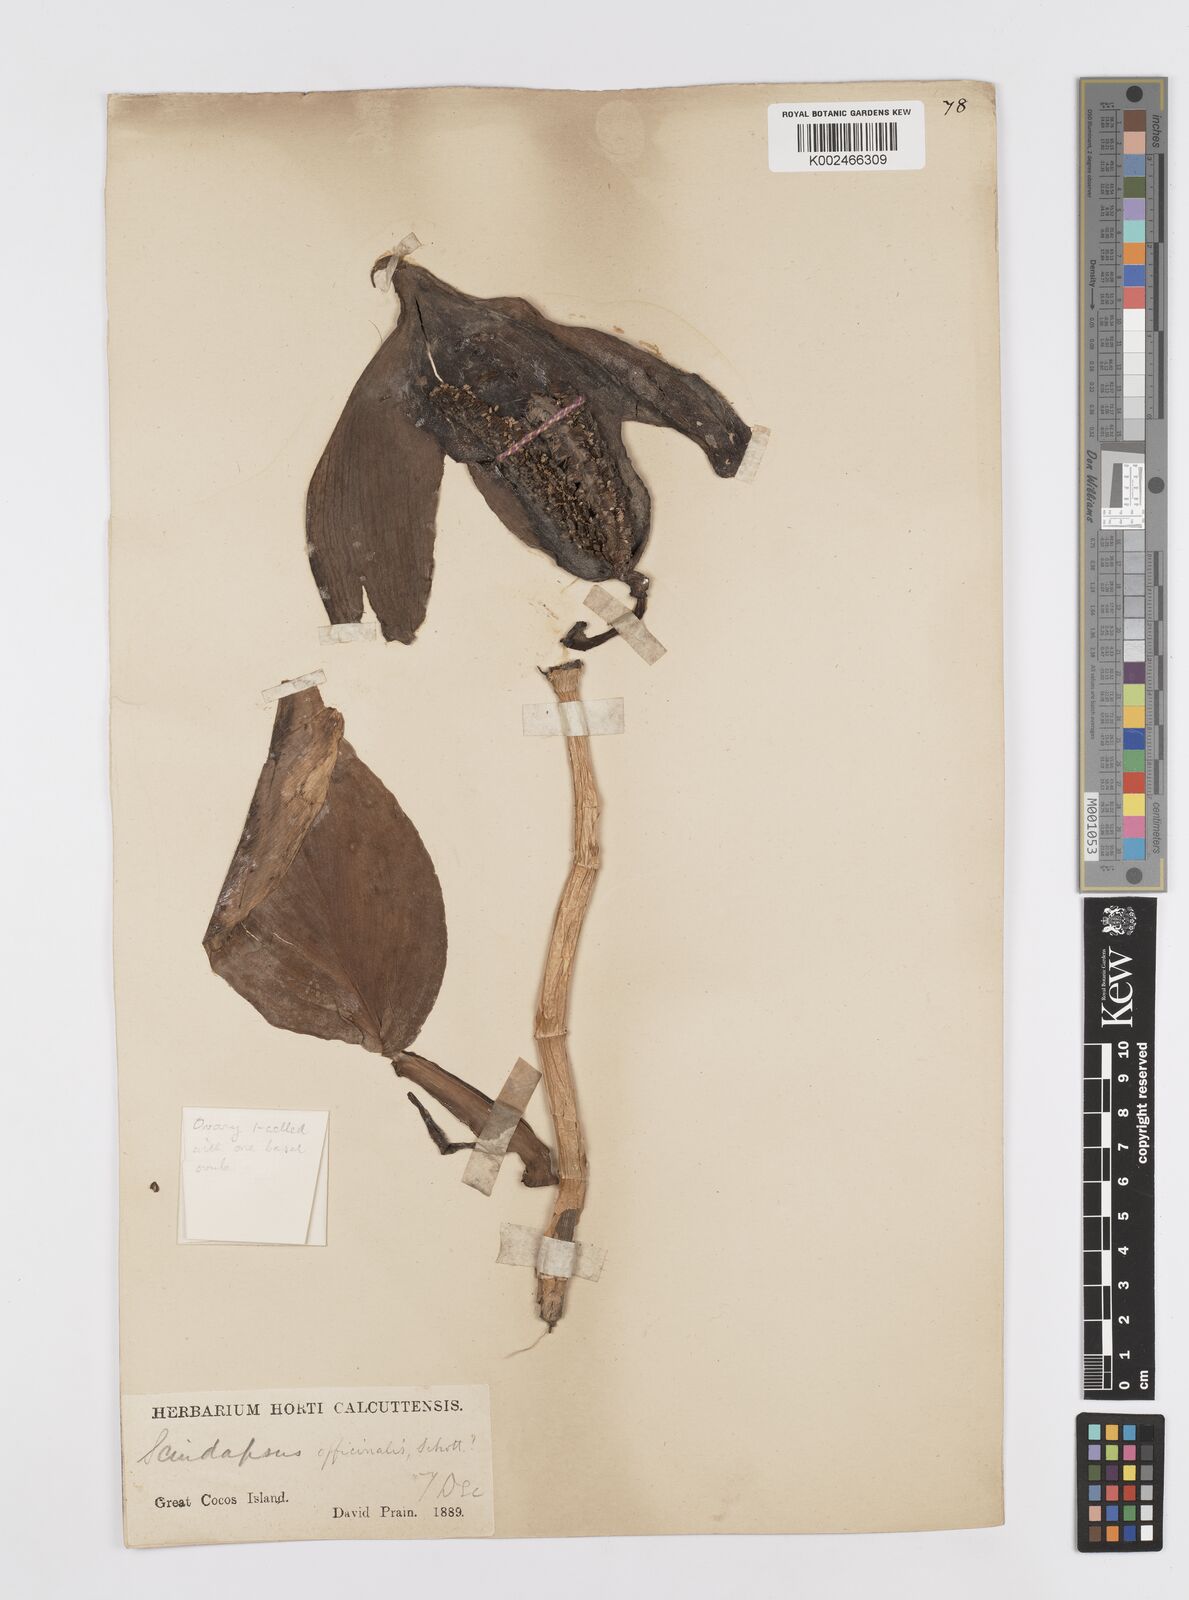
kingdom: Plantae
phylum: Tracheophyta
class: Liliopsida
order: Alismatales
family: Araceae
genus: Scindapsus
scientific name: Scindapsus officinalis
